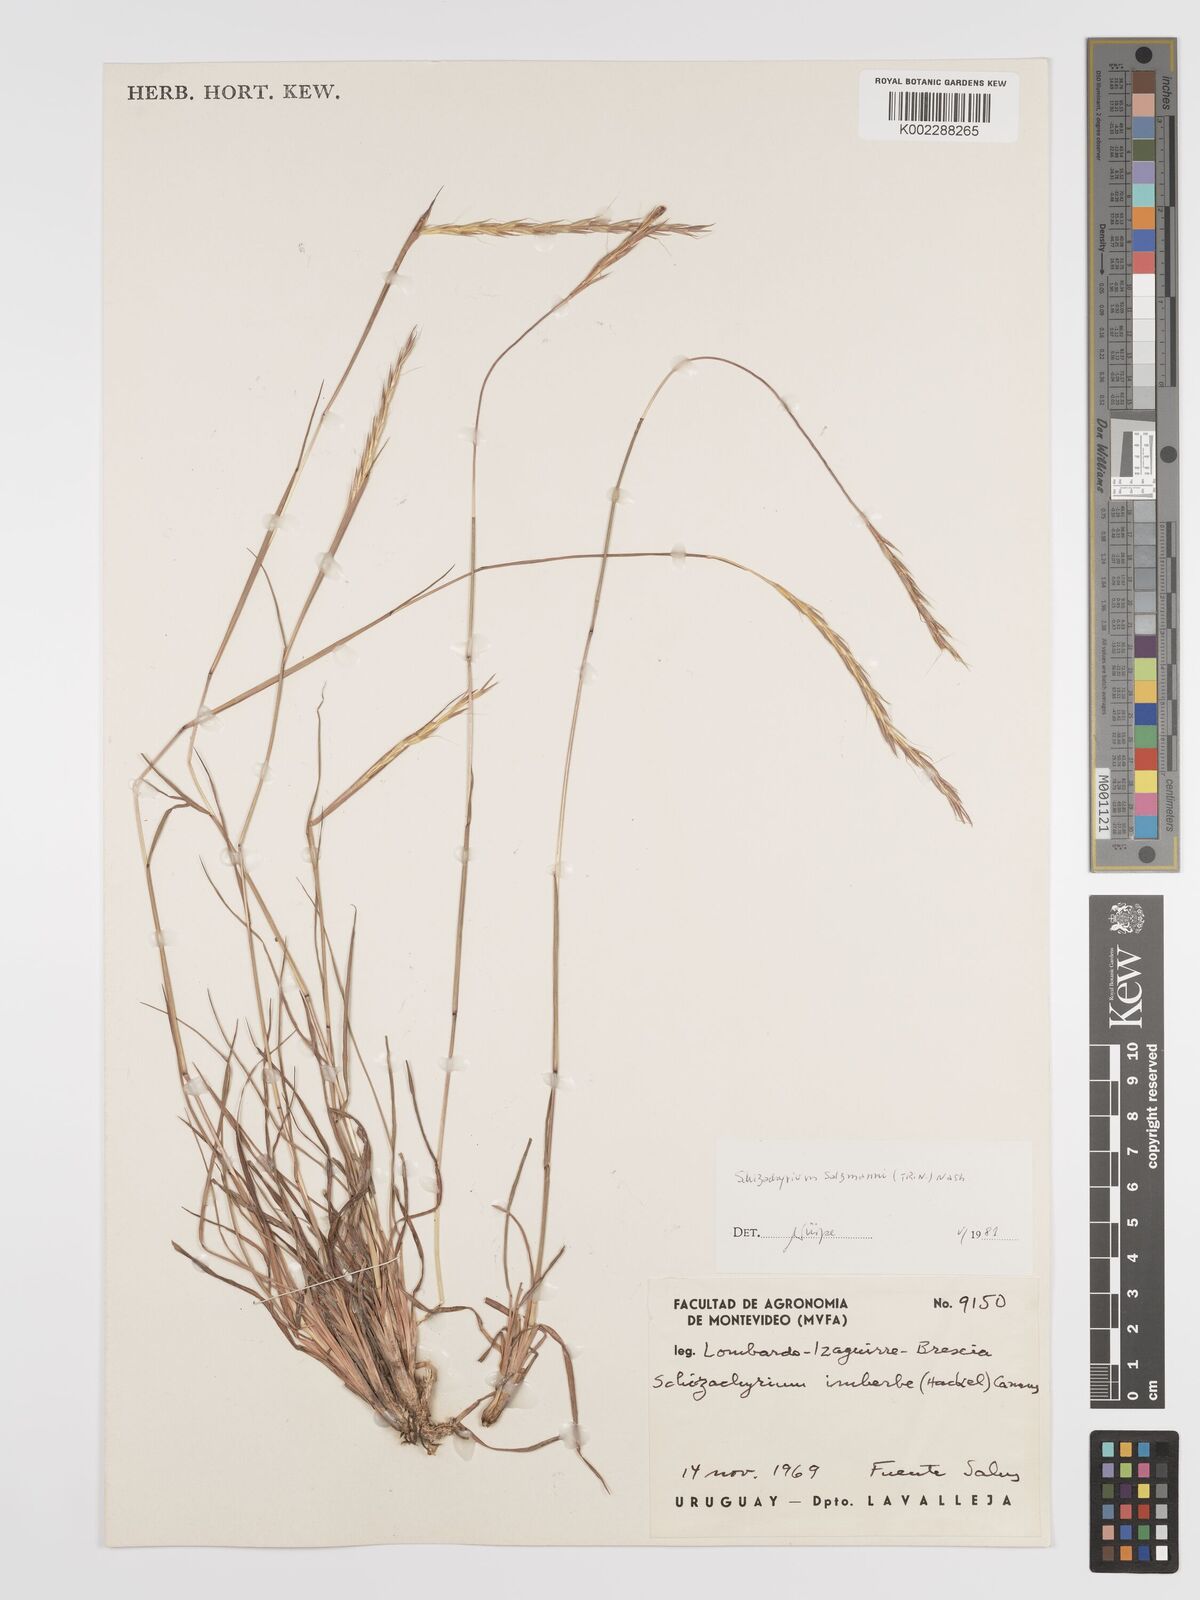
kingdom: Plantae
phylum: Tracheophyta
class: Liliopsida
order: Poales
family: Poaceae
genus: Andropogon
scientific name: Andropogon salzmannii
